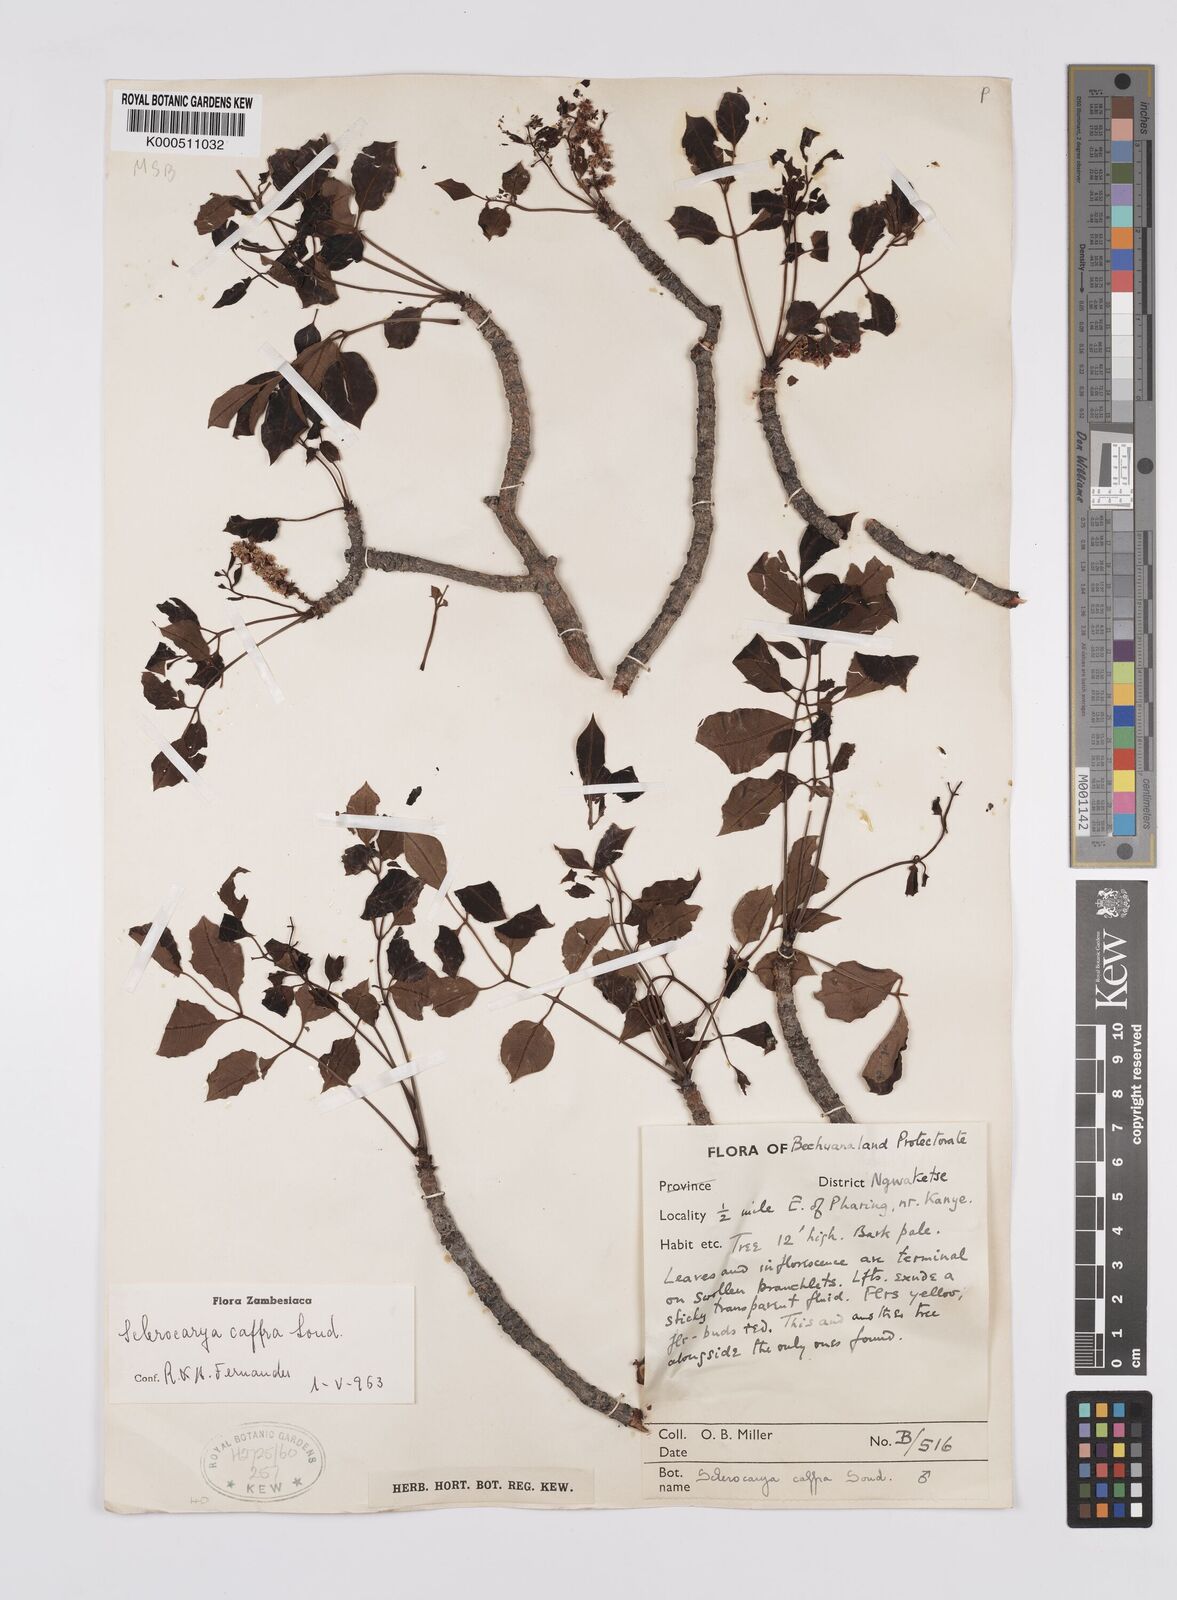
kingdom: Plantae
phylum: Tracheophyta
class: Magnoliopsida
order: Sapindales
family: Anacardiaceae
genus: Sclerocarya
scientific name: Sclerocarya birrea
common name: Marula
